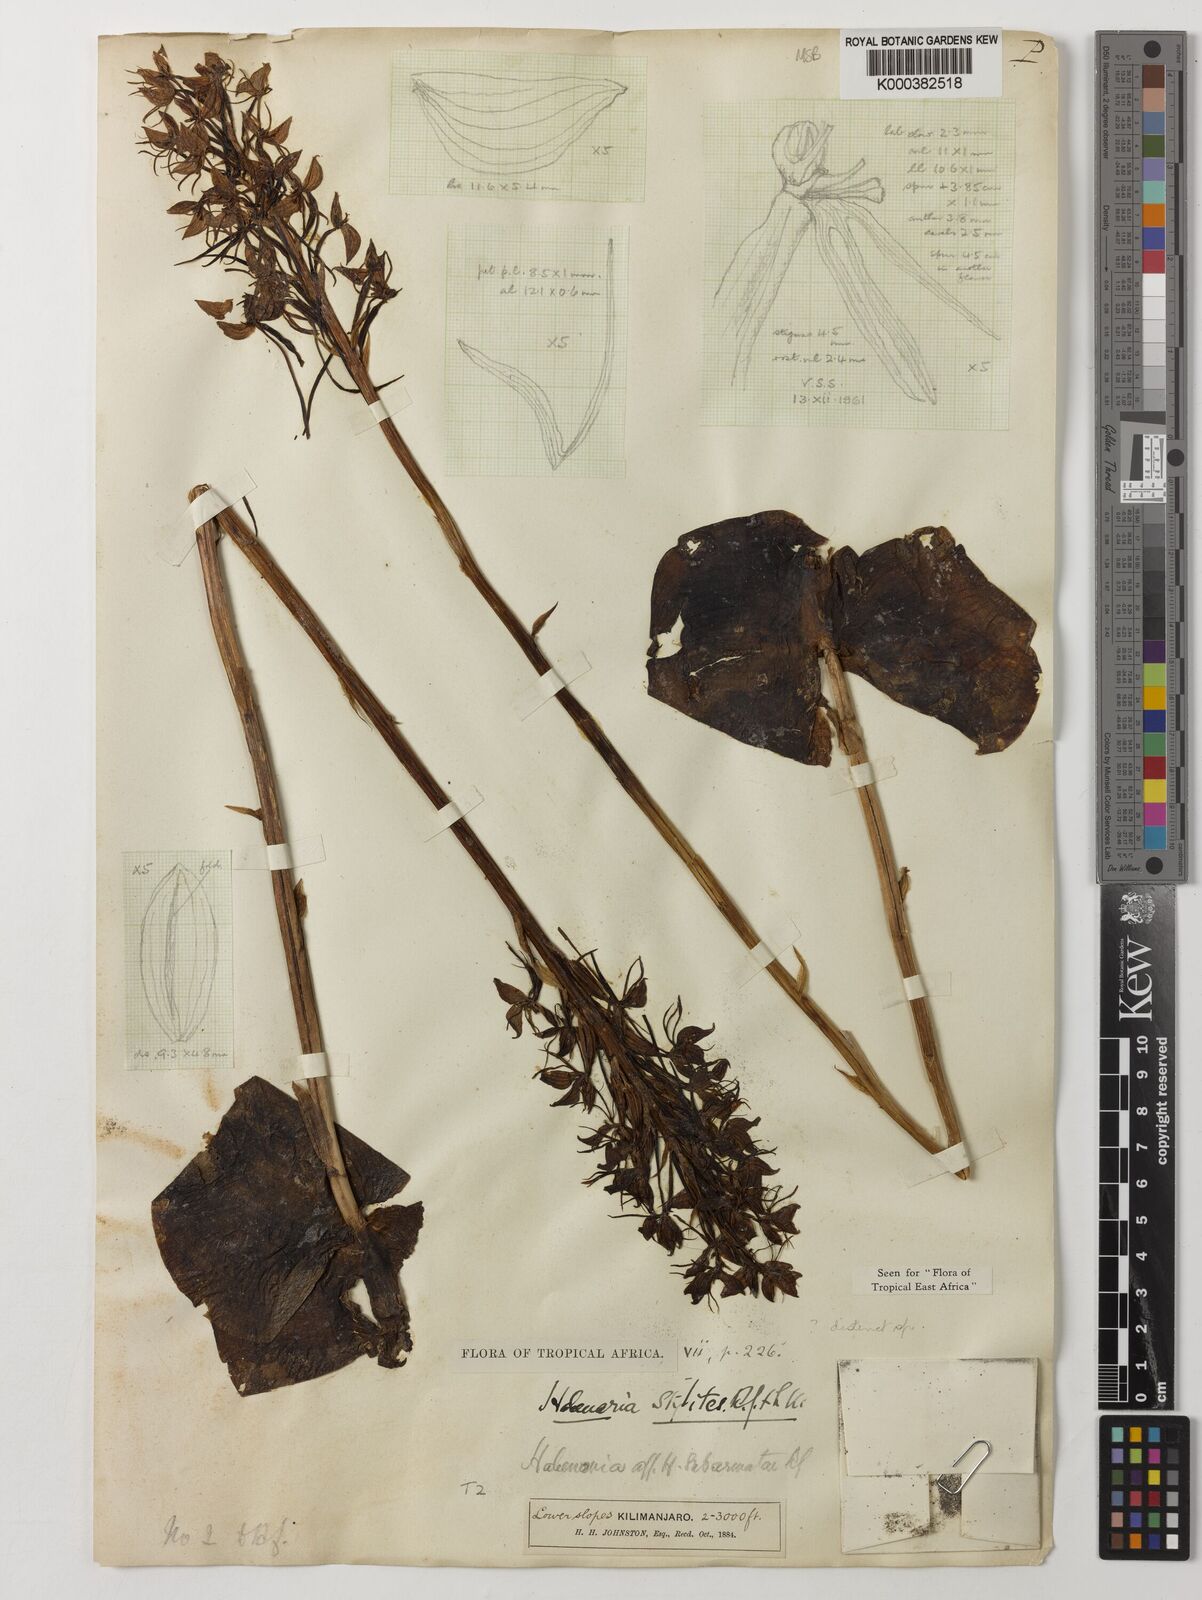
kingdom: Plantae
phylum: Tracheophyta
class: Liliopsida
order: Asparagales
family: Orchidaceae
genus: Habenaria
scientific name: Habenaria stylites
